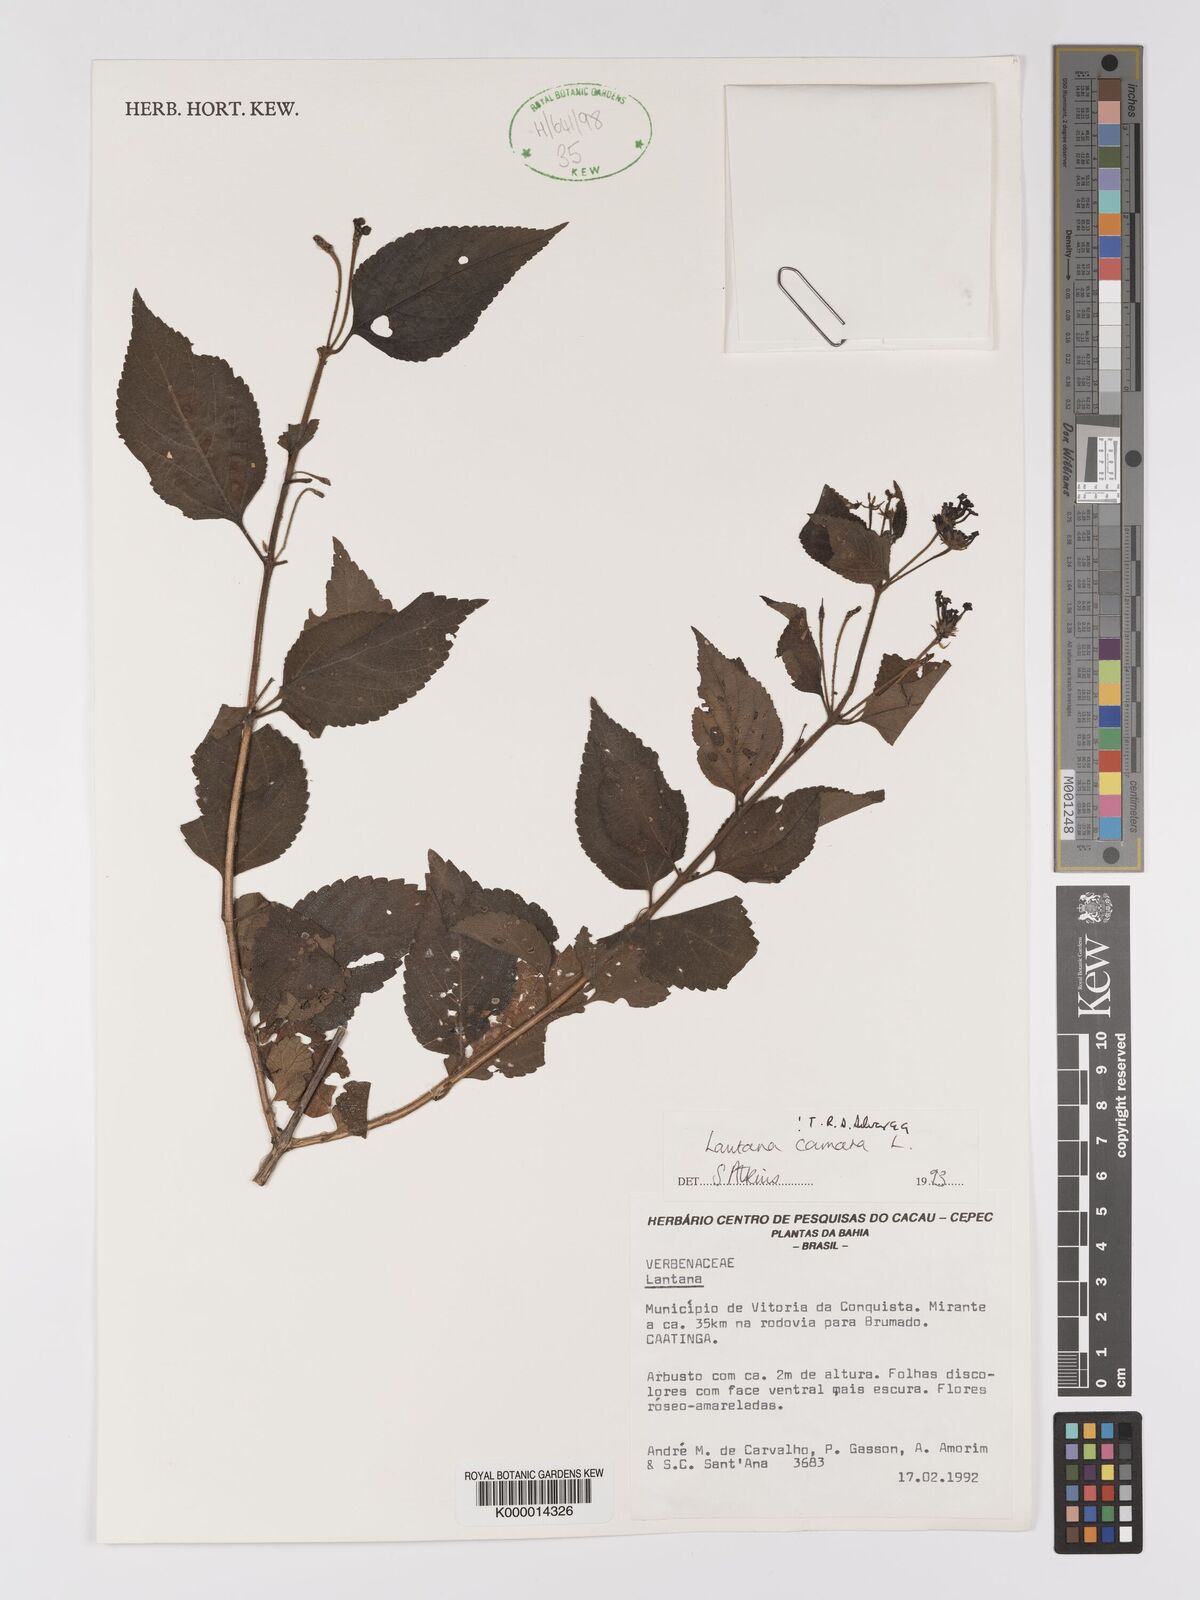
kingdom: Plantae
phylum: Tracheophyta
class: Magnoliopsida
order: Lamiales
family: Verbenaceae
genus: Lantana
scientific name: Lantana camara
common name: Lantana
